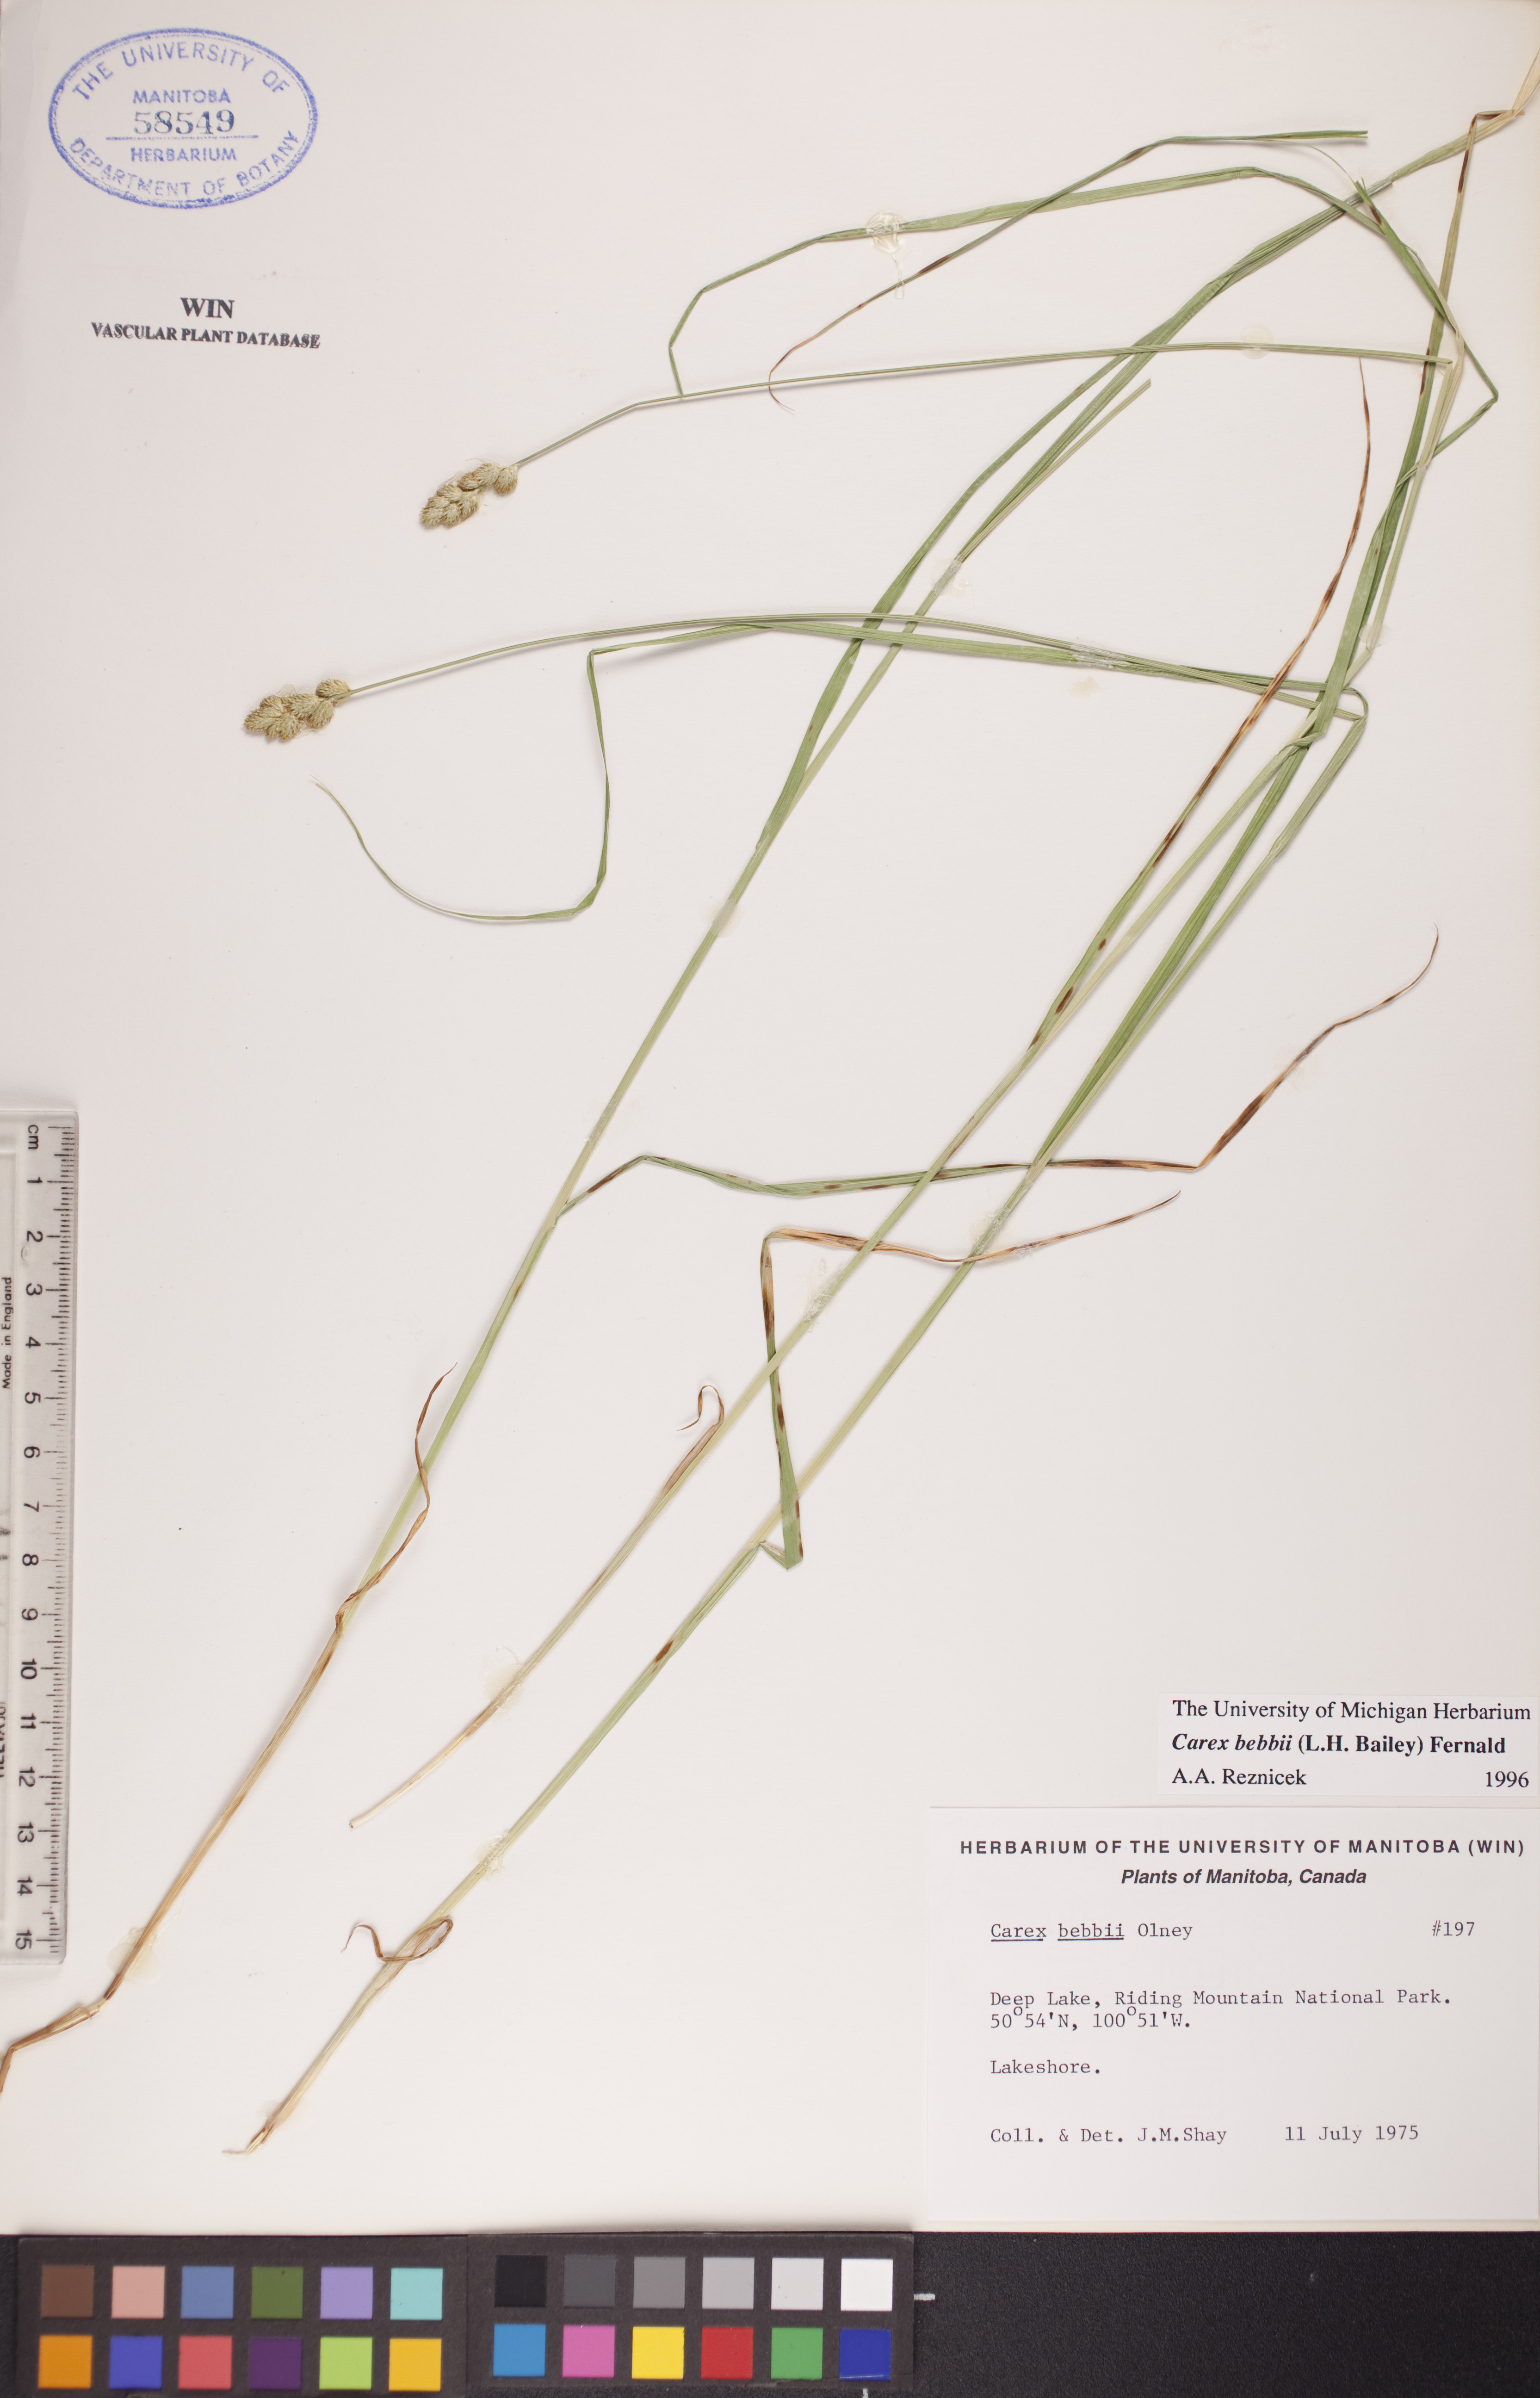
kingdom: Plantae
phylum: Tracheophyta
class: Liliopsida
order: Poales
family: Cyperaceae
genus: Carex
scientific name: Carex bebbii
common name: Bebb's sedge
